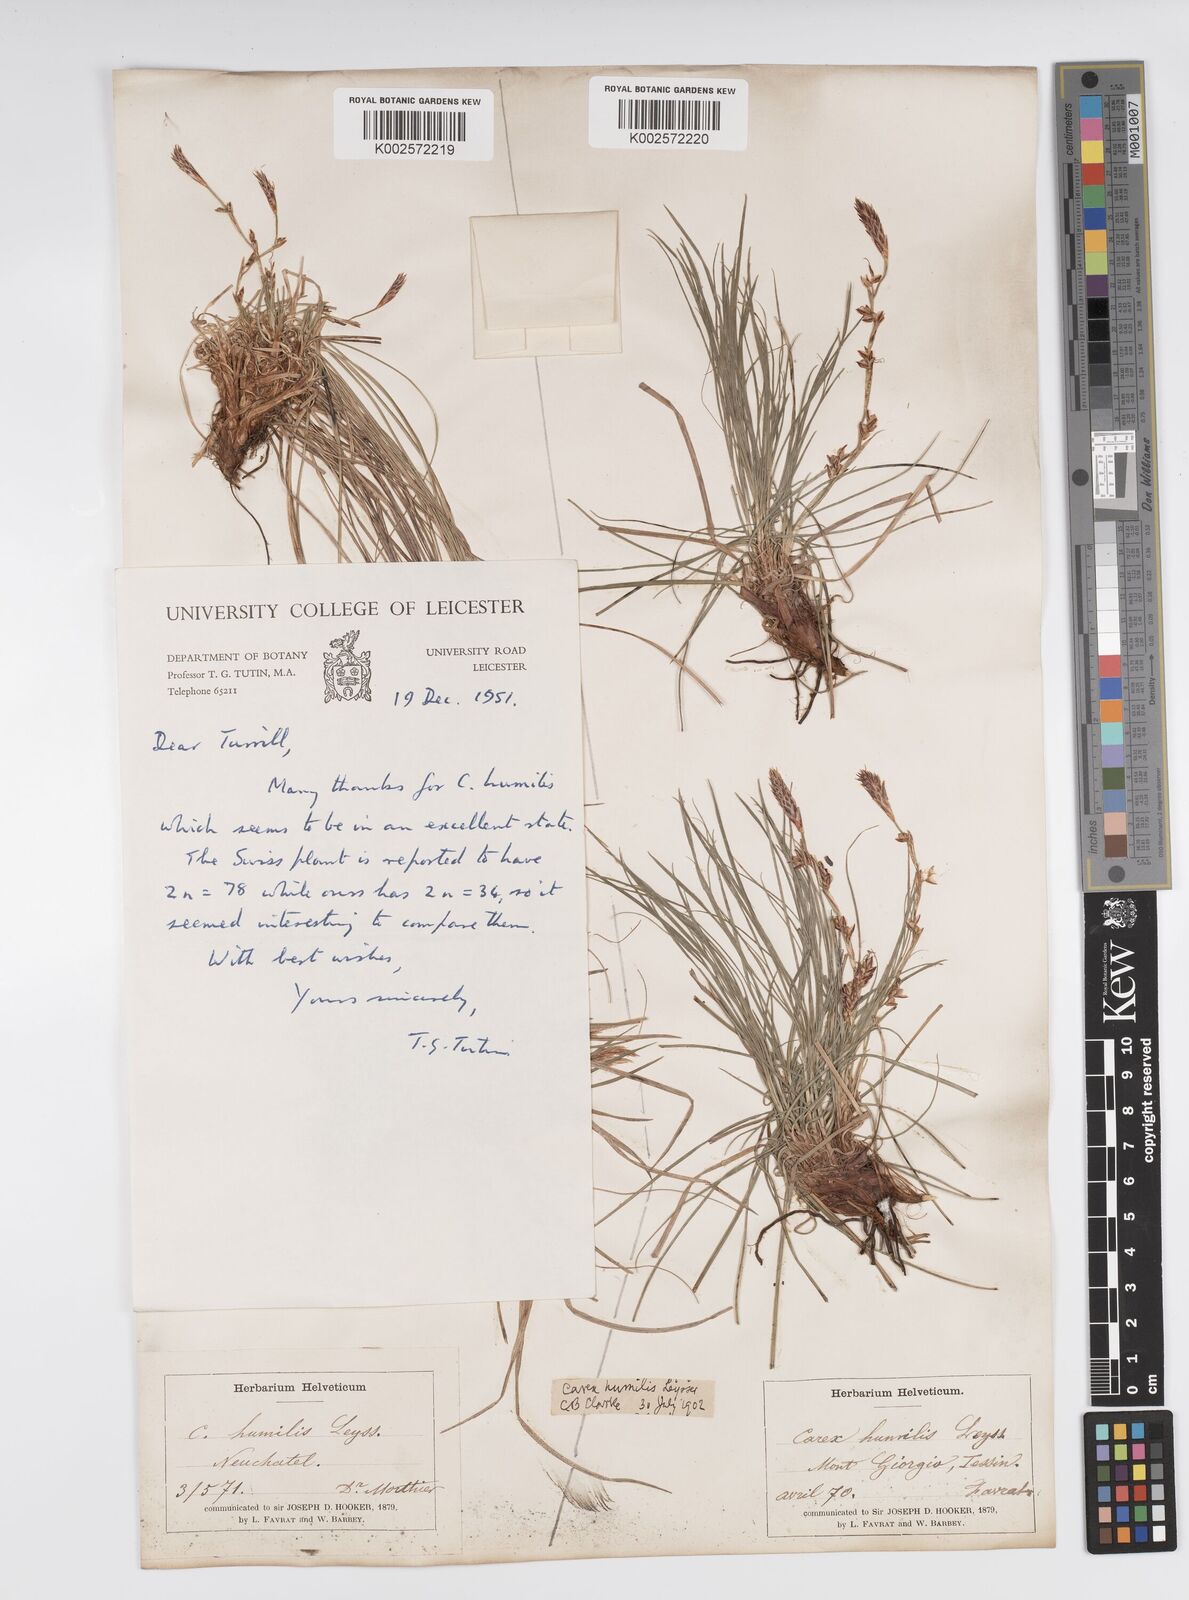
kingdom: Plantae
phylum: Tracheophyta
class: Liliopsida
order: Poales
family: Cyperaceae
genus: Carex
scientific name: Carex humilis
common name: Dwarf sedge
